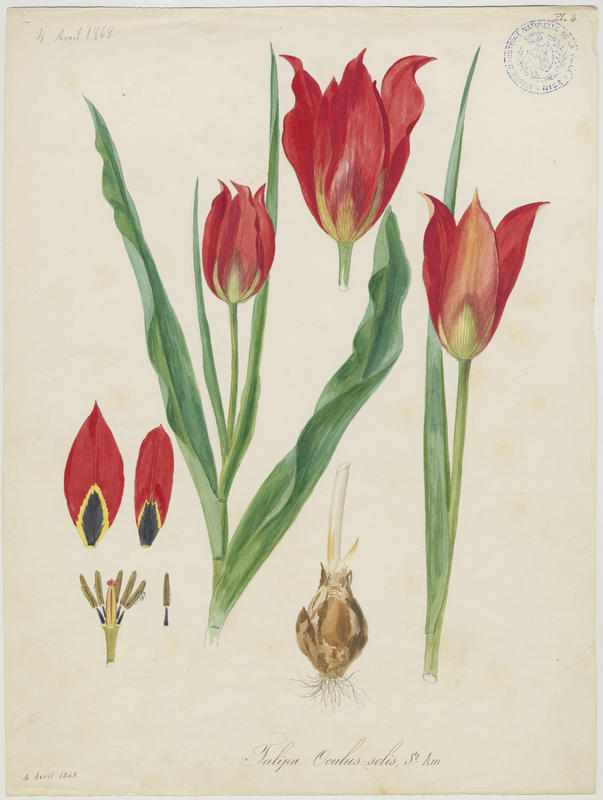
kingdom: Plantae
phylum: Tracheophyta
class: Liliopsida
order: Liliales
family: Liliaceae
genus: Tulipa
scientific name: Tulipa agenensis
